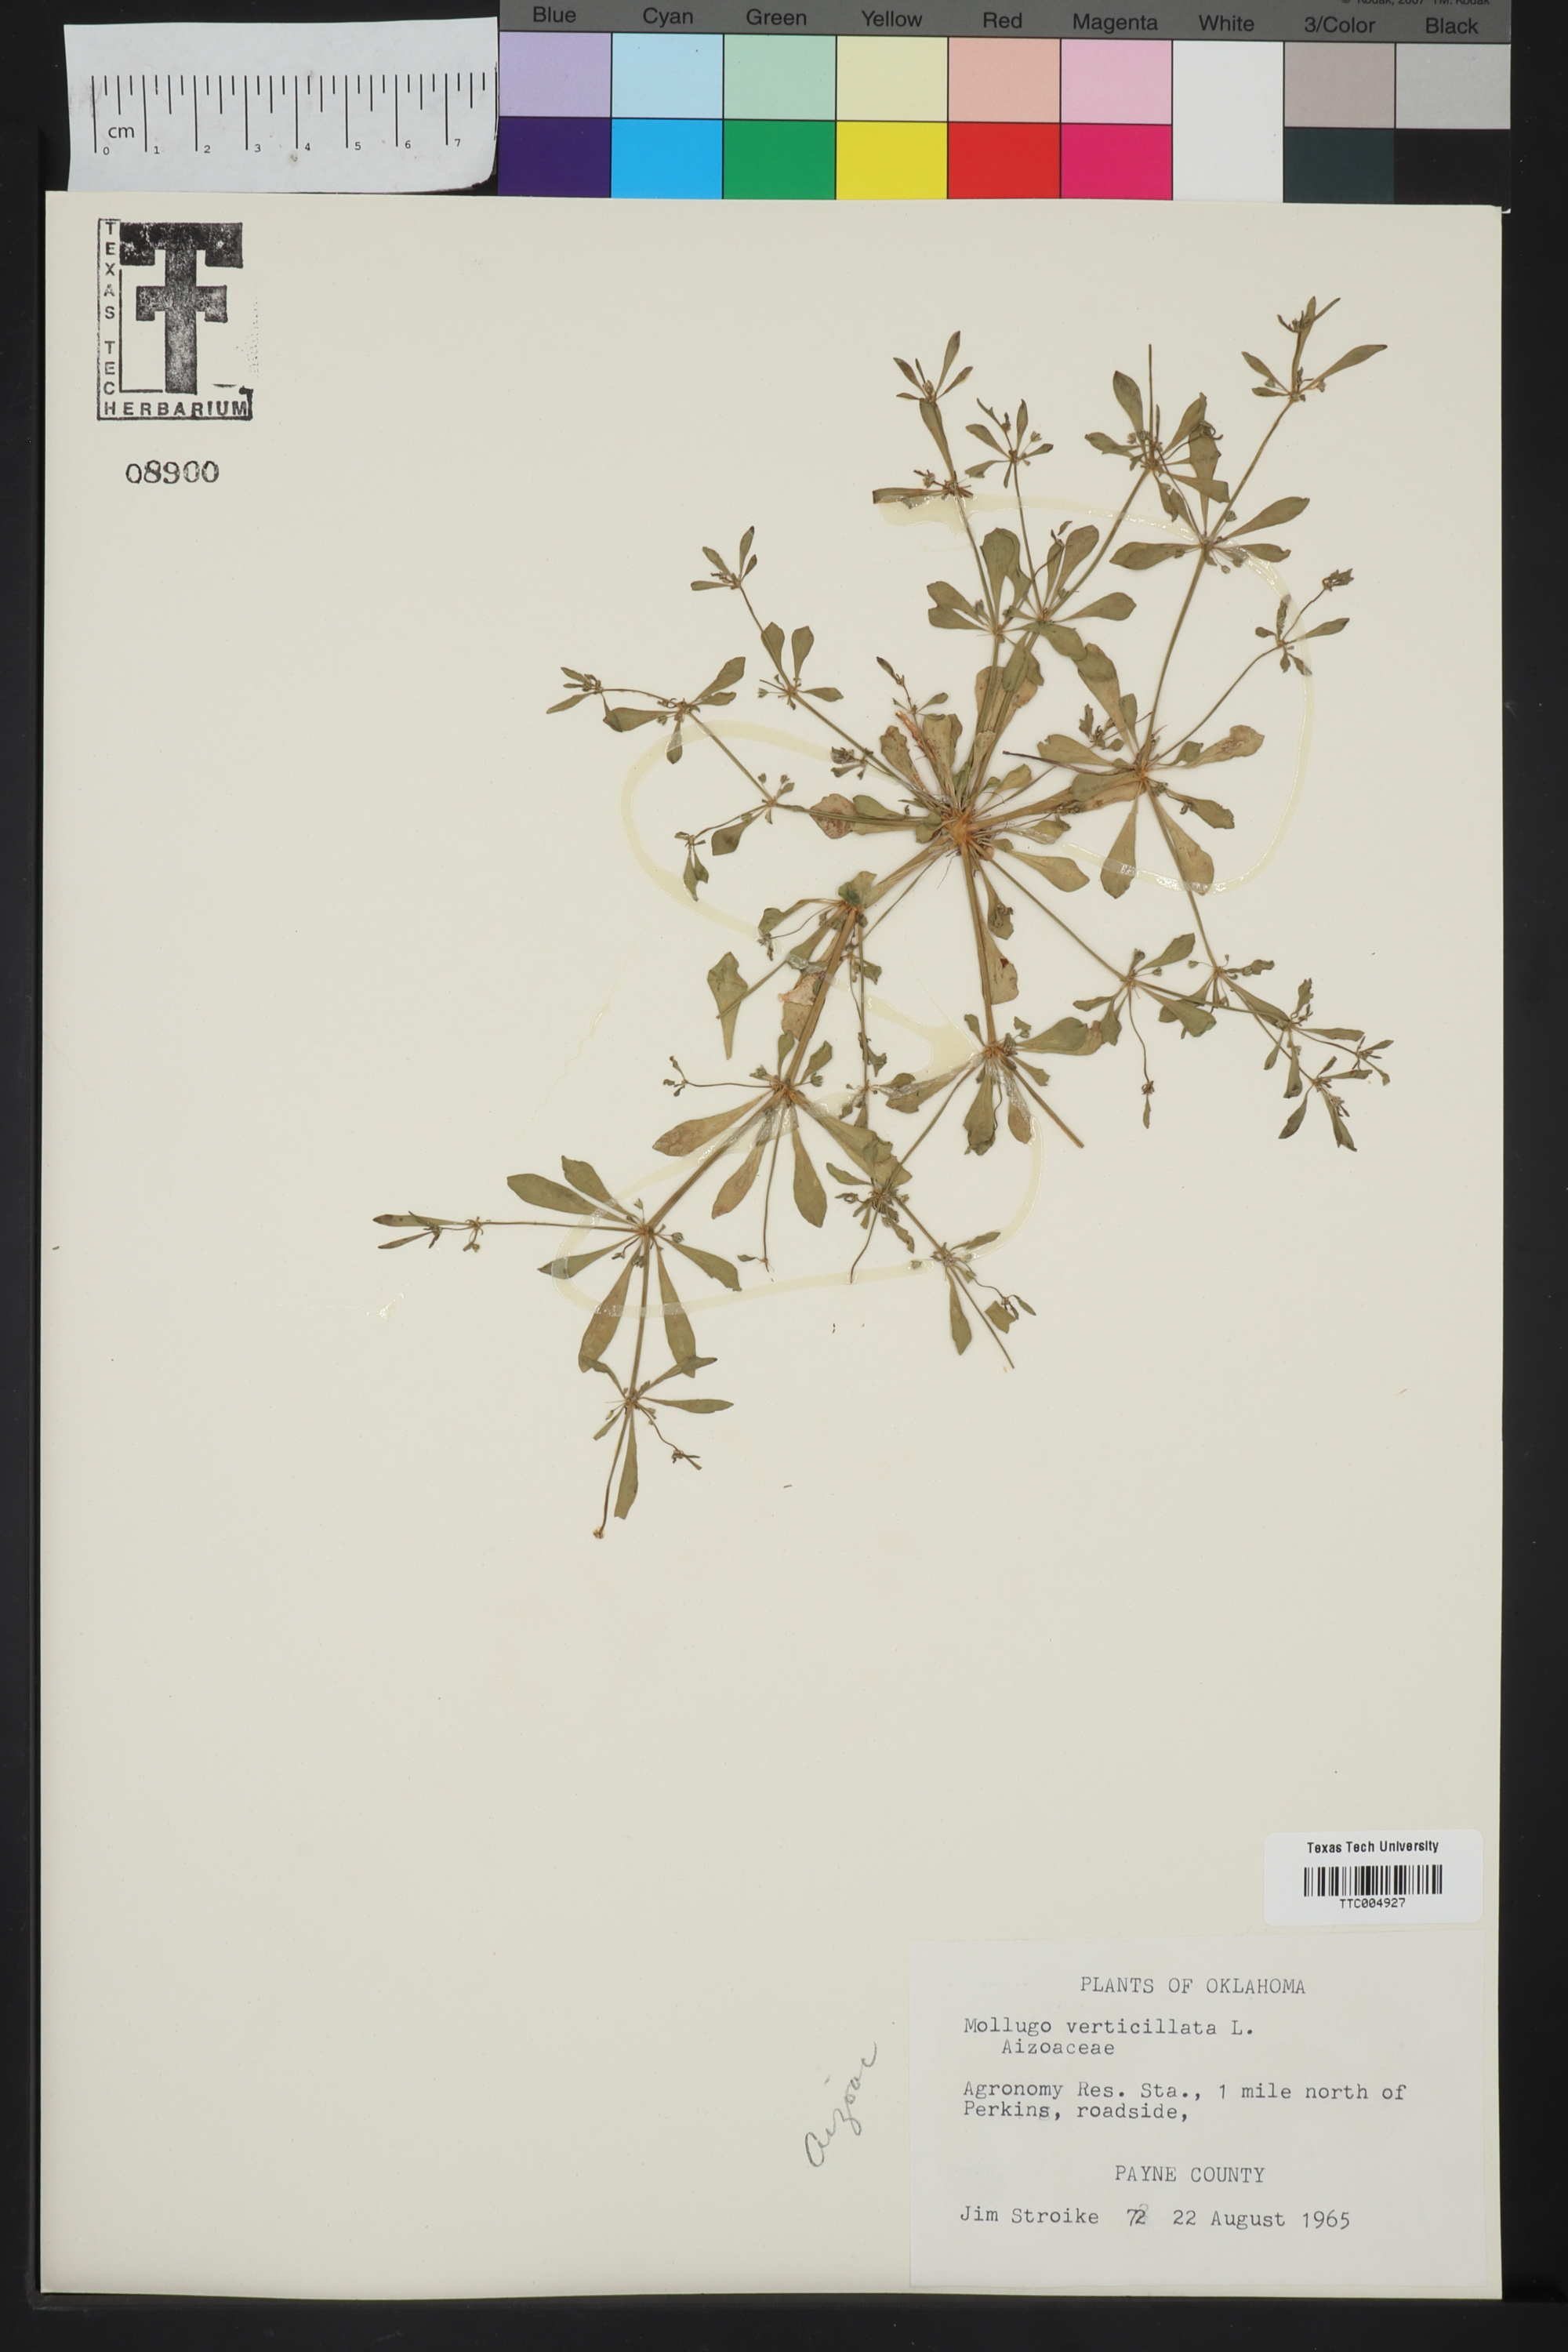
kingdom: Plantae
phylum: Tracheophyta
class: Magnoliopsida
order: Caryophyllales
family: Molluginaceae
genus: Mollugo
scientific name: Mollugo verticillata
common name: Green carpetweed
